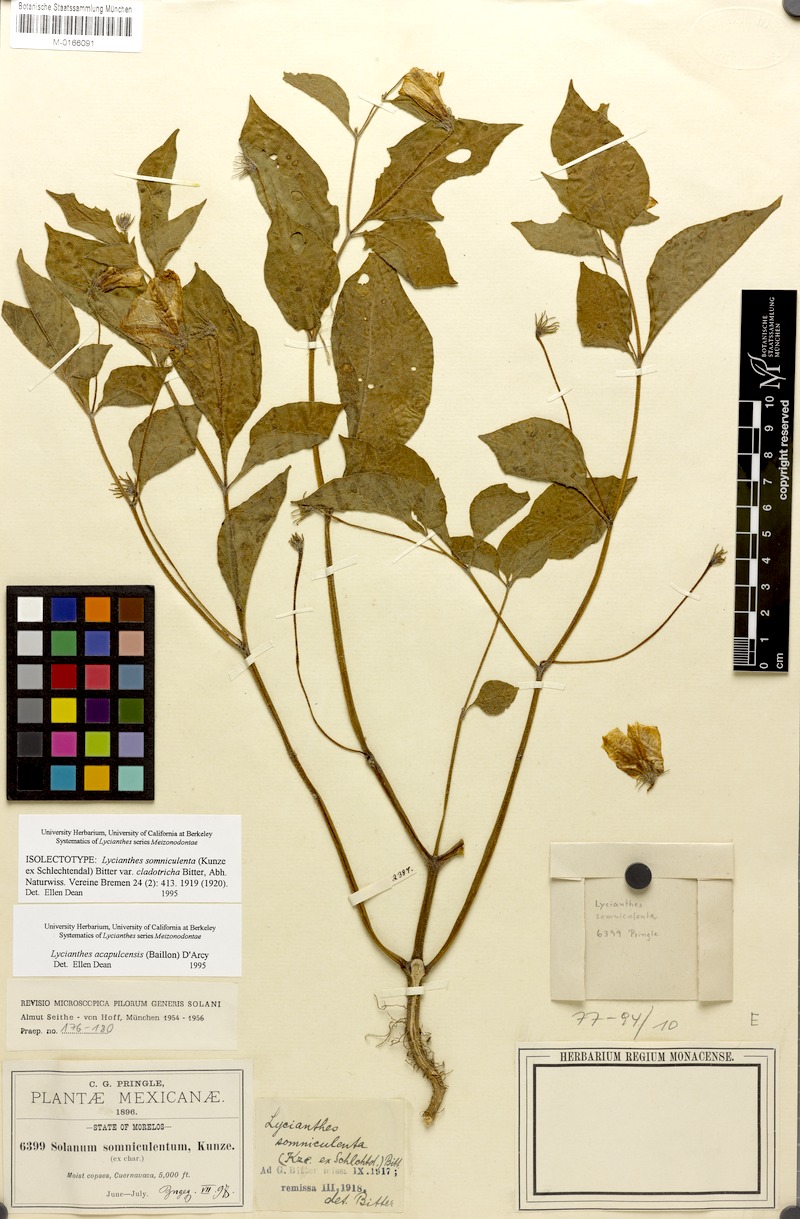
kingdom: Plantae
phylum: Tracheophyta
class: Magnoliopsida
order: Solanales
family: Solanaceae
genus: Lycianthes
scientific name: Lycianthes acapulcensis
